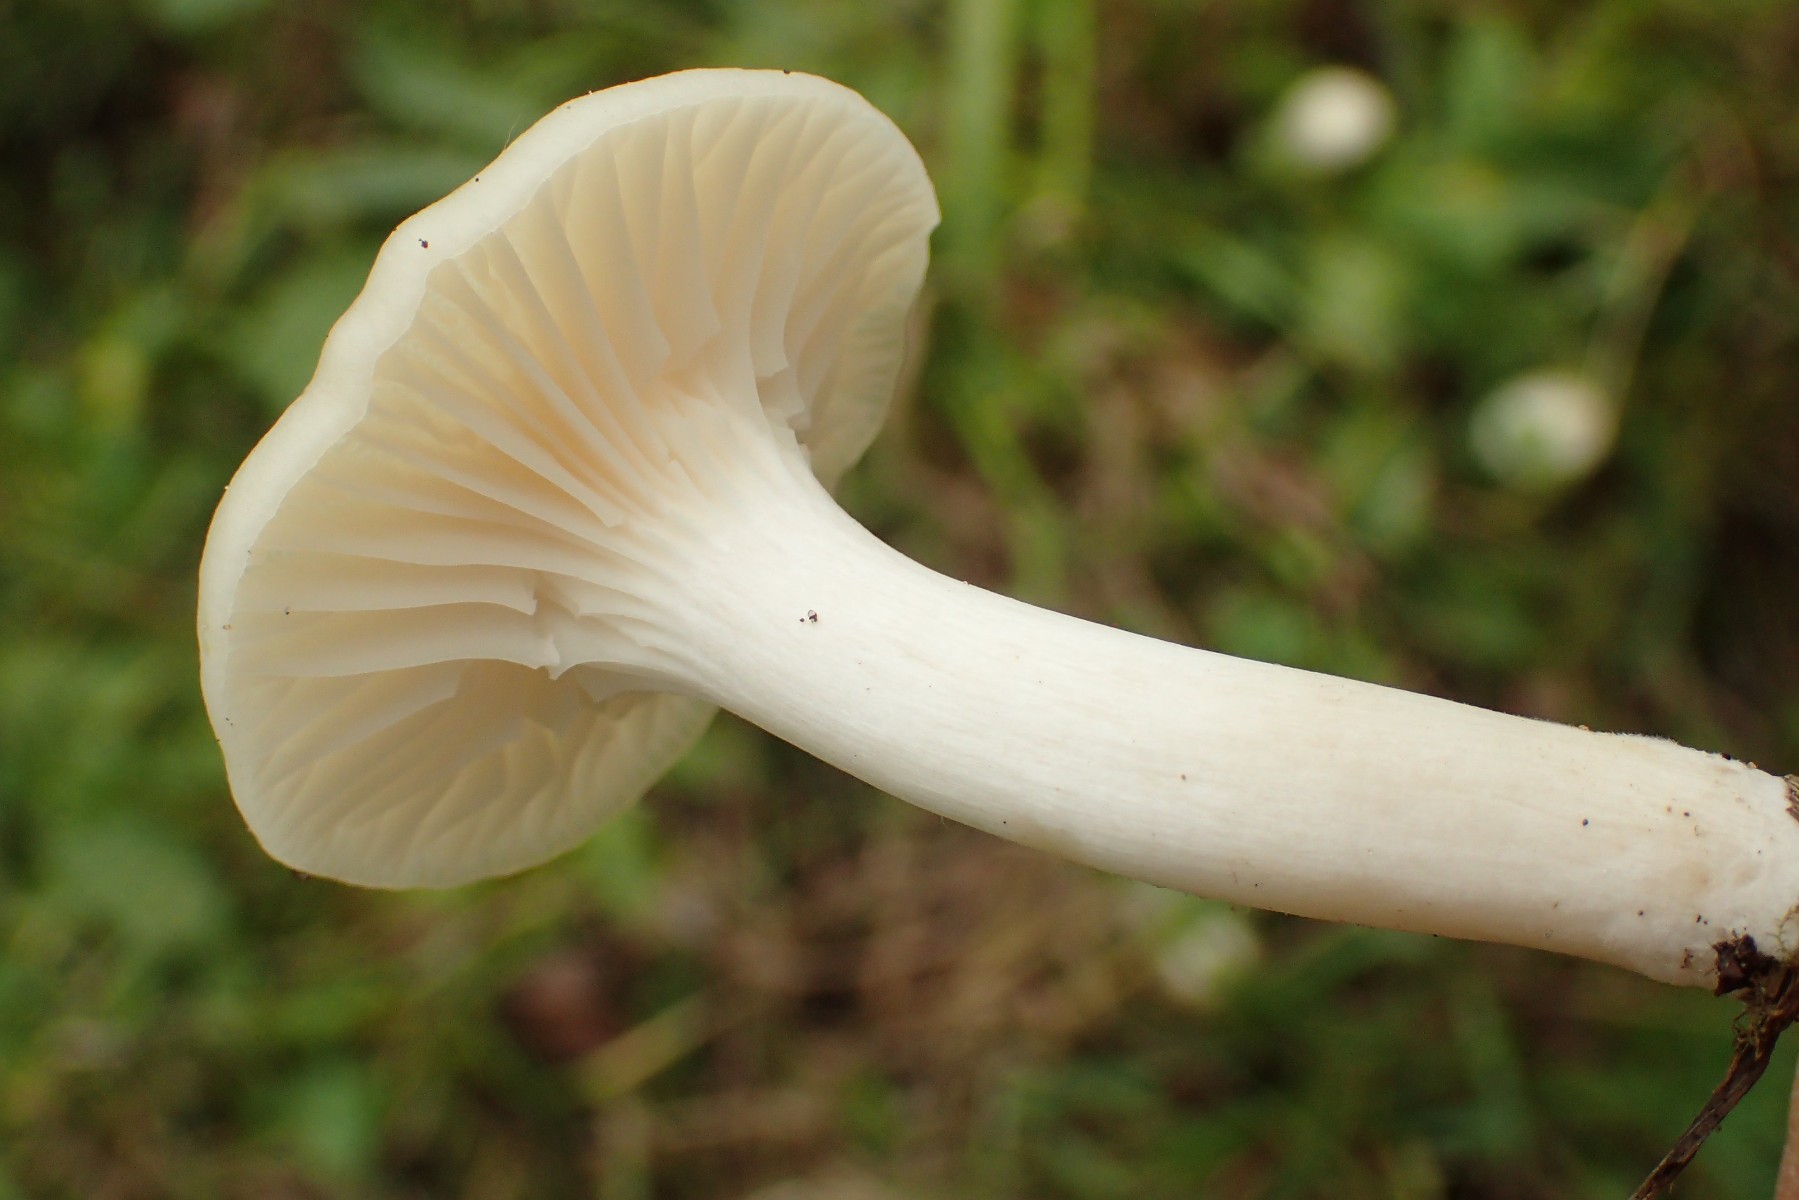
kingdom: Fungi
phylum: Basidiomycota
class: Agaricomycetes
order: Agaricales
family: Hygrophoraceae
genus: Cuphophyllus
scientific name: Cuphophyllus virgineus
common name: snehvid vokshat
